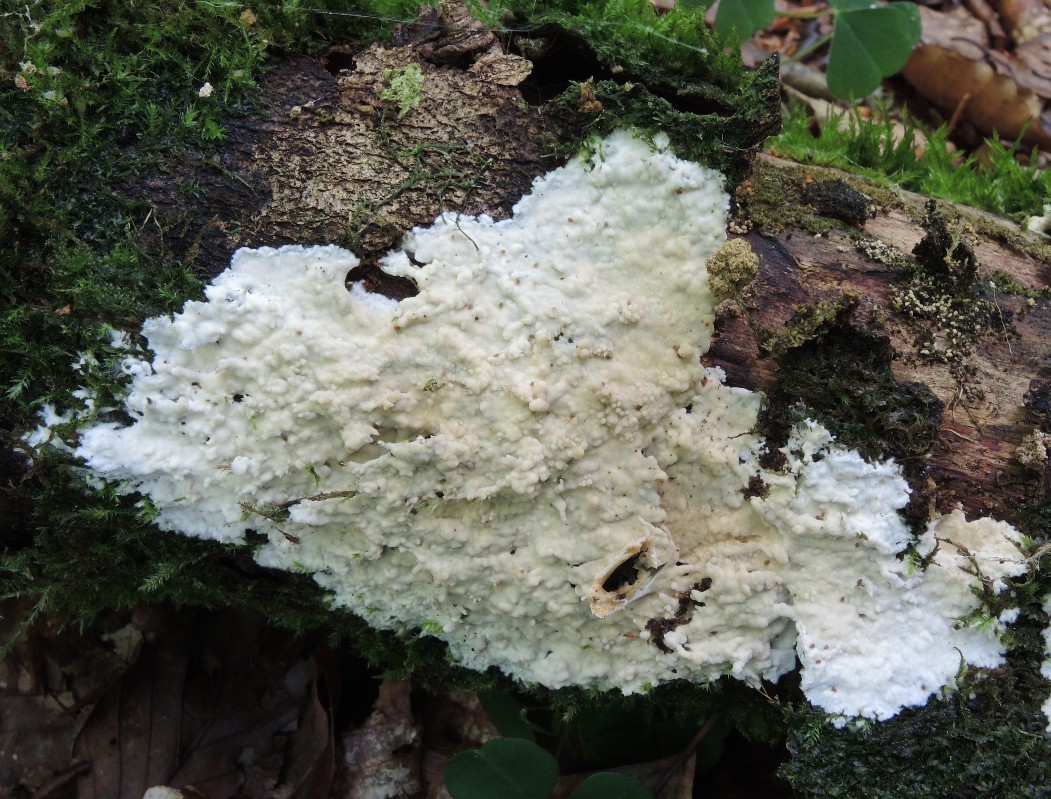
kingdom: Fungi
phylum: Basidiomycota
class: Agaricomycetes
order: Polyporales
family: Phanerochaetaceae
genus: Phanerochaete
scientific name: Phanerochaete velutina
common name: dunet randtråd
